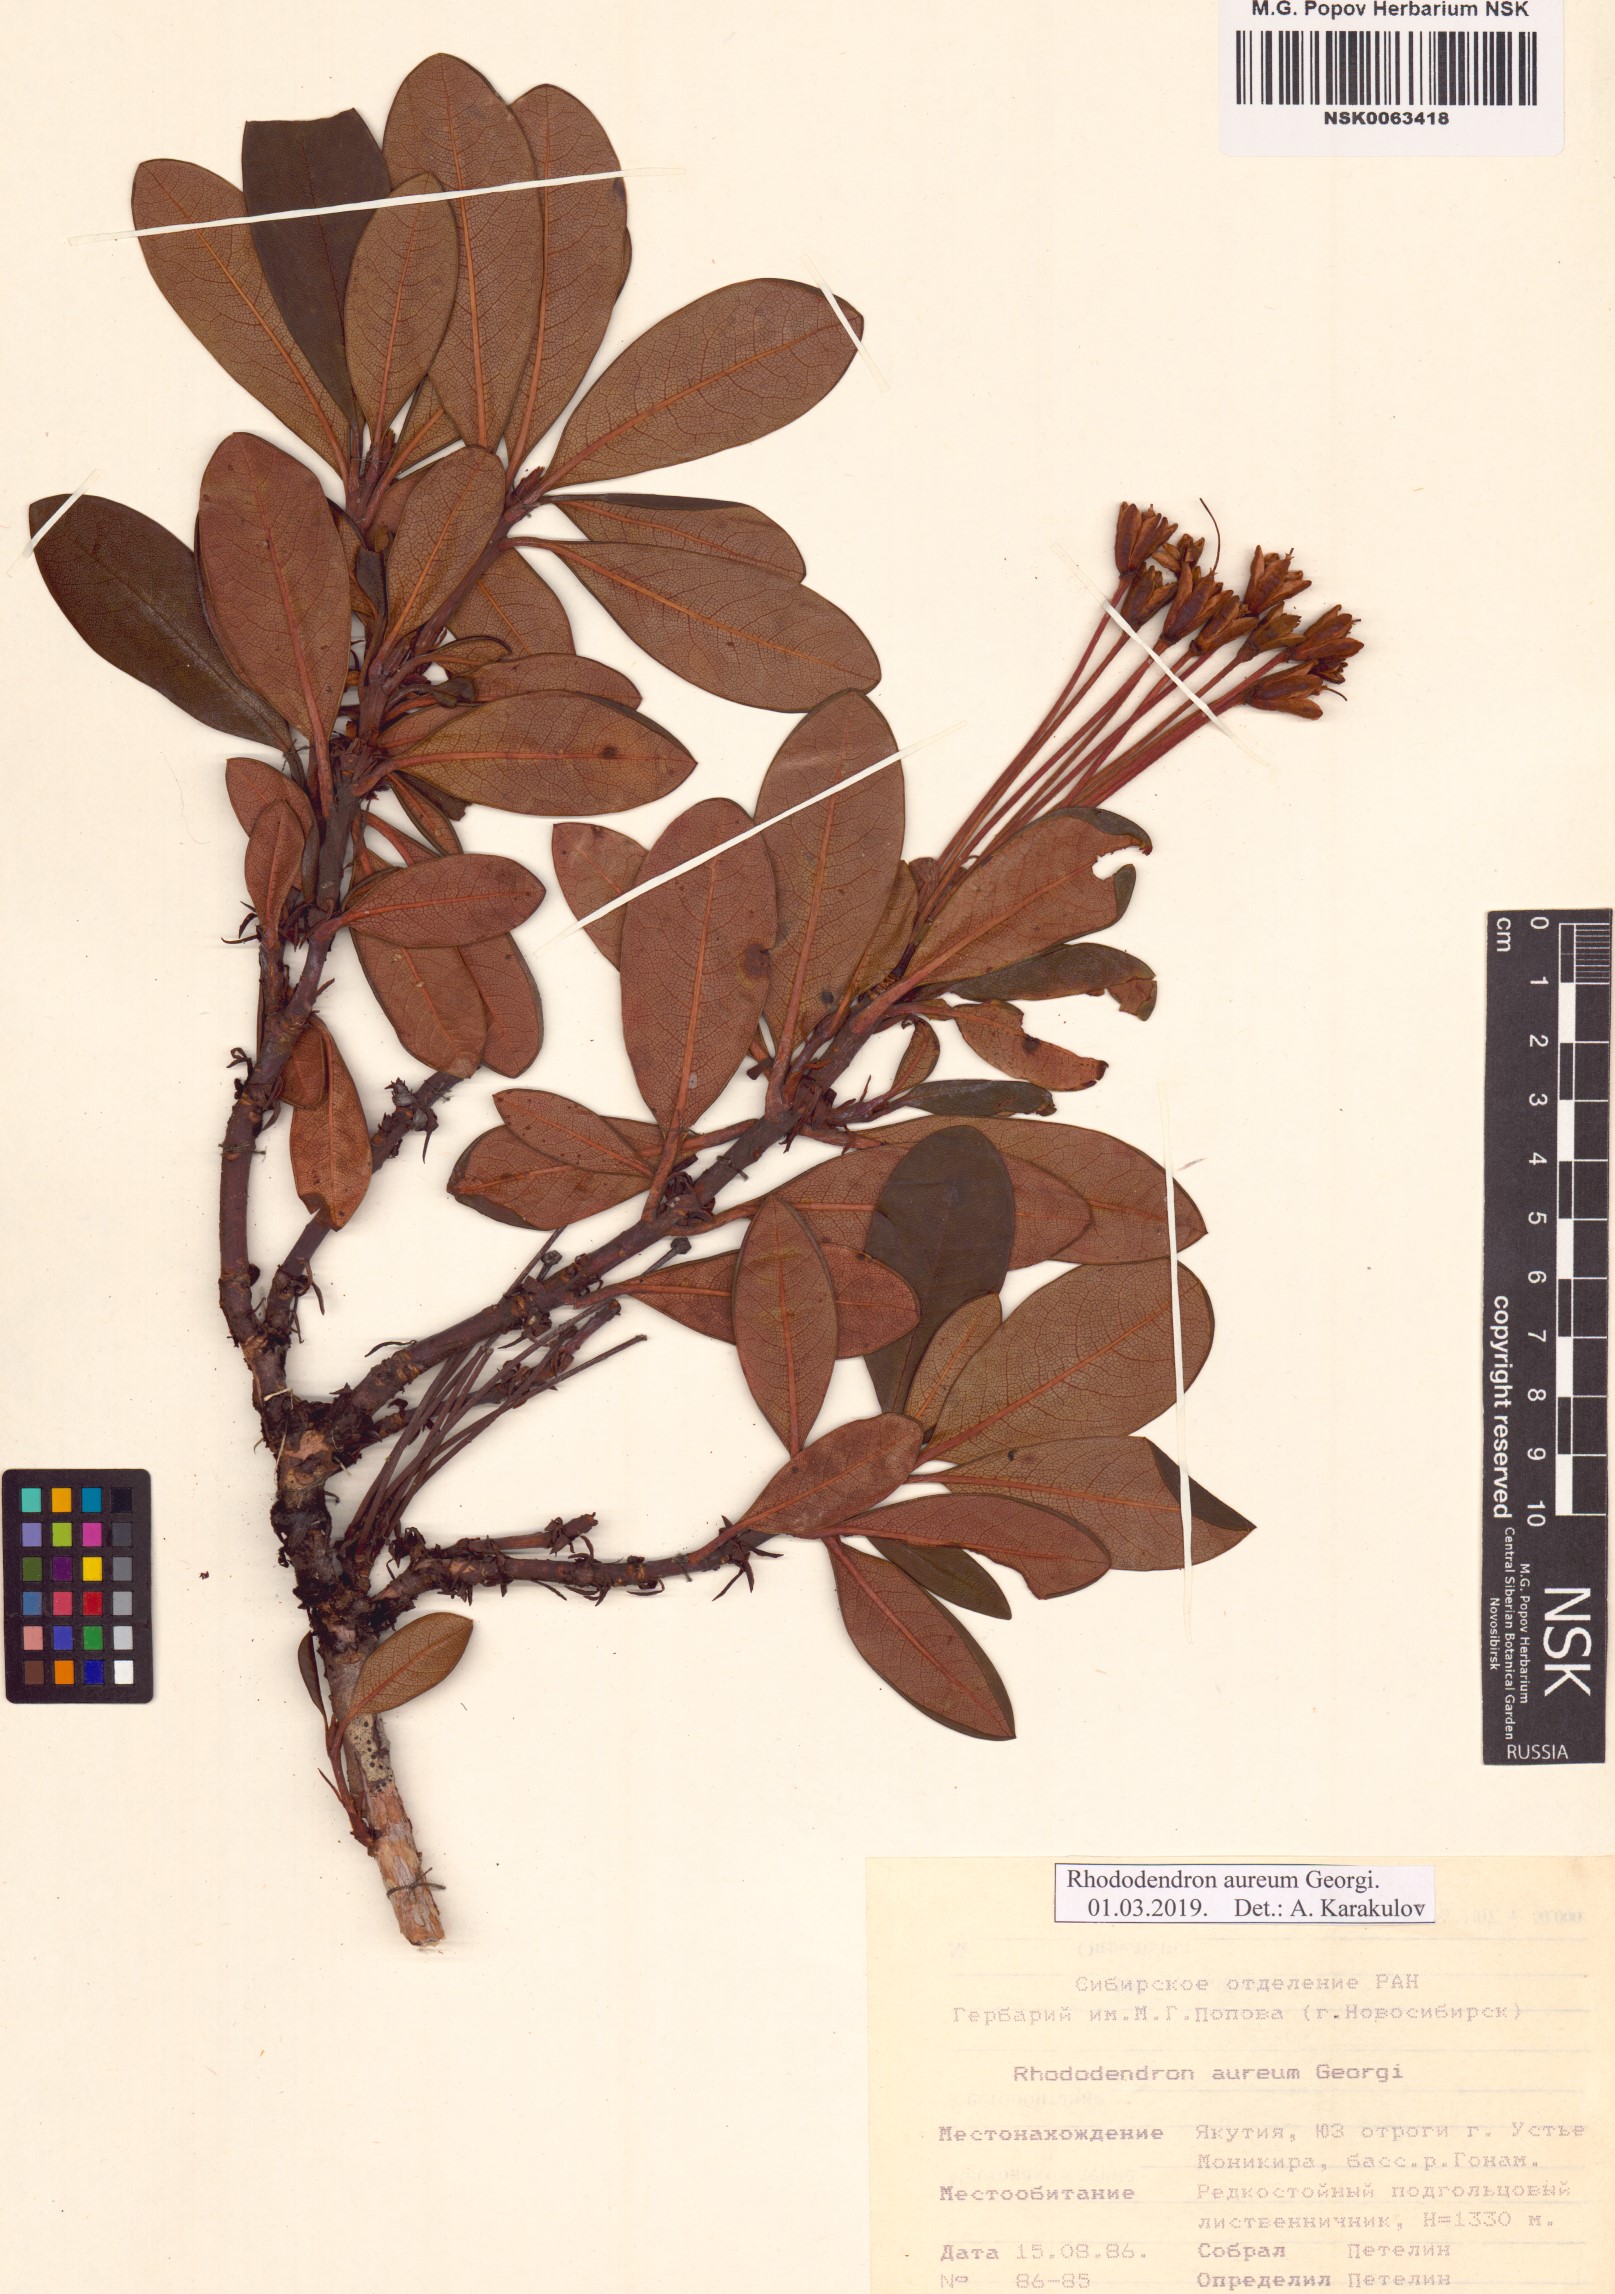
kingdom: Plantae
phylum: Tracheophyta
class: Magnoliopsida
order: Ericales
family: Ericaceae
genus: Rhododendron
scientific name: Rhododendron aureum
